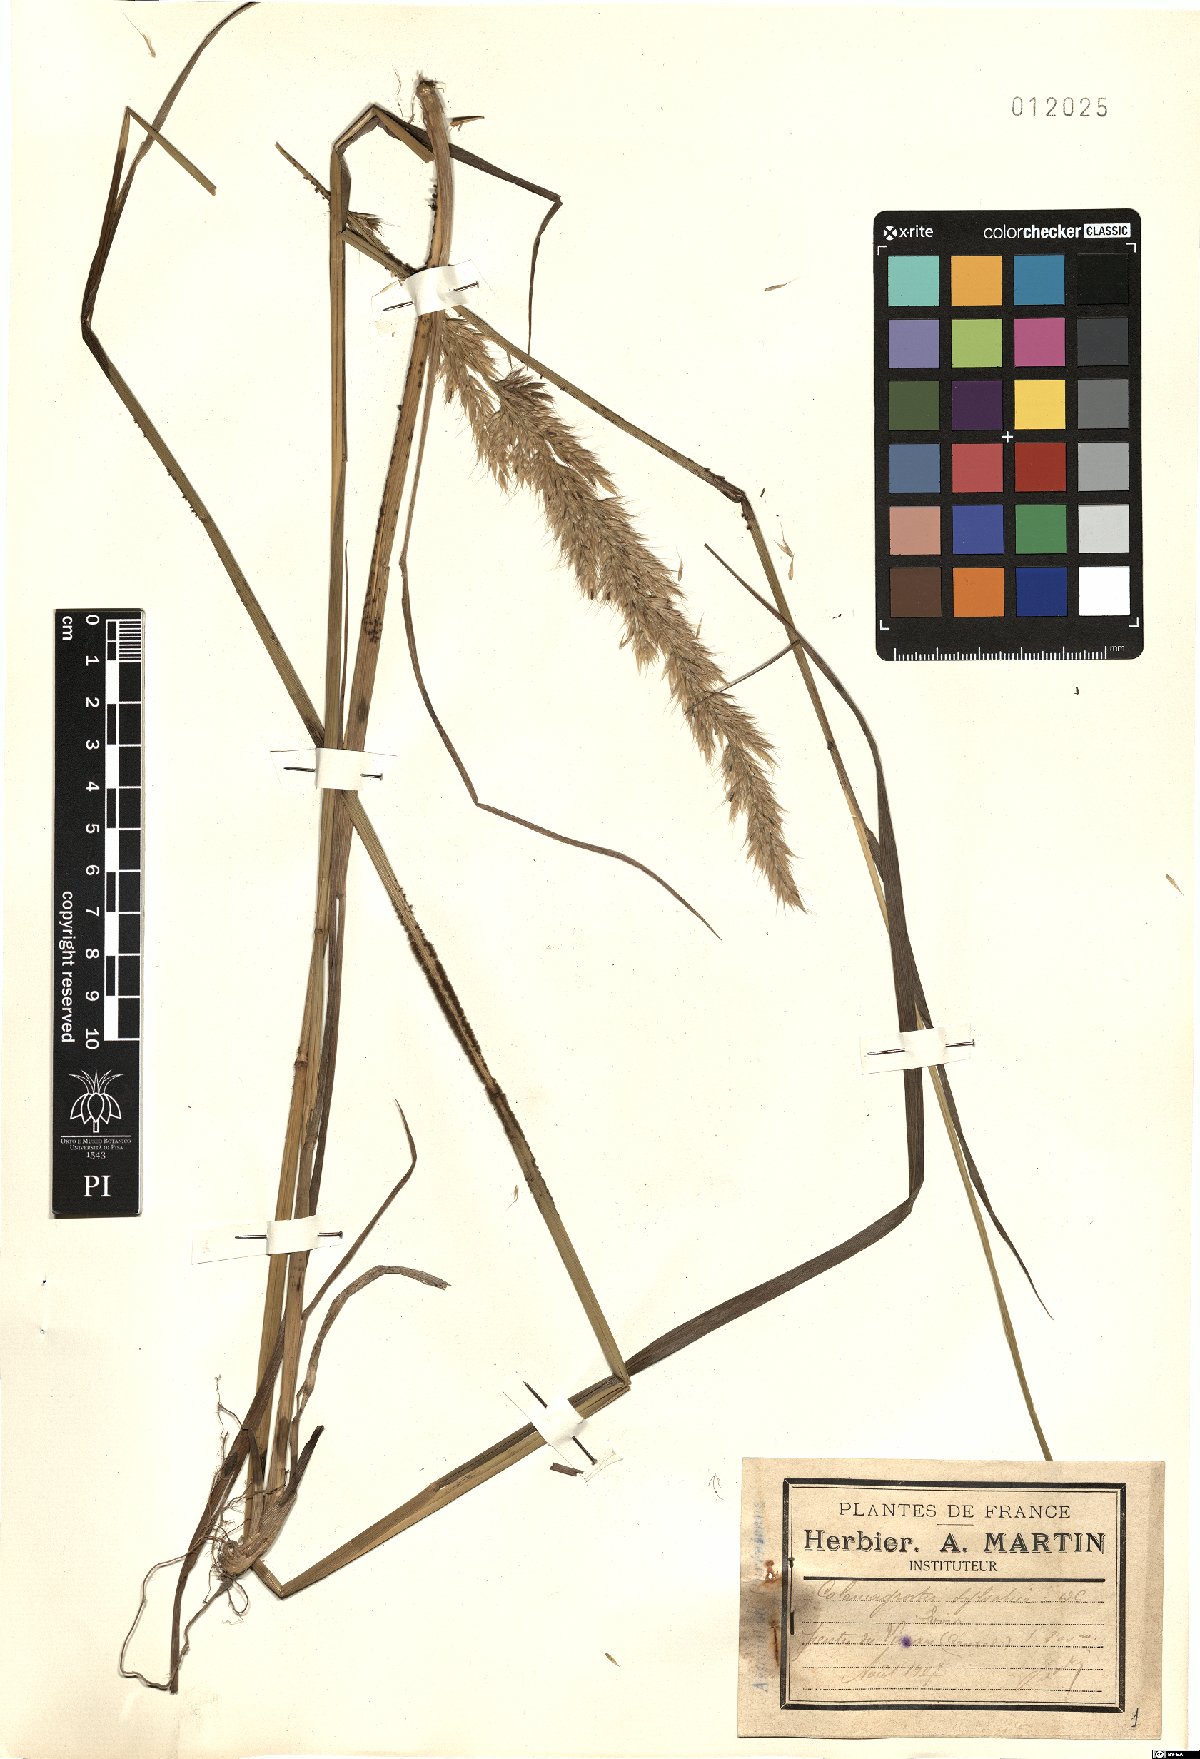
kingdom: Plantae
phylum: Tracheophyta
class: Liliopsida
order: Poales
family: Poaceae
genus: Calamagrostis
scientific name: Calamagrostis arundinacea
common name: Metskastik
